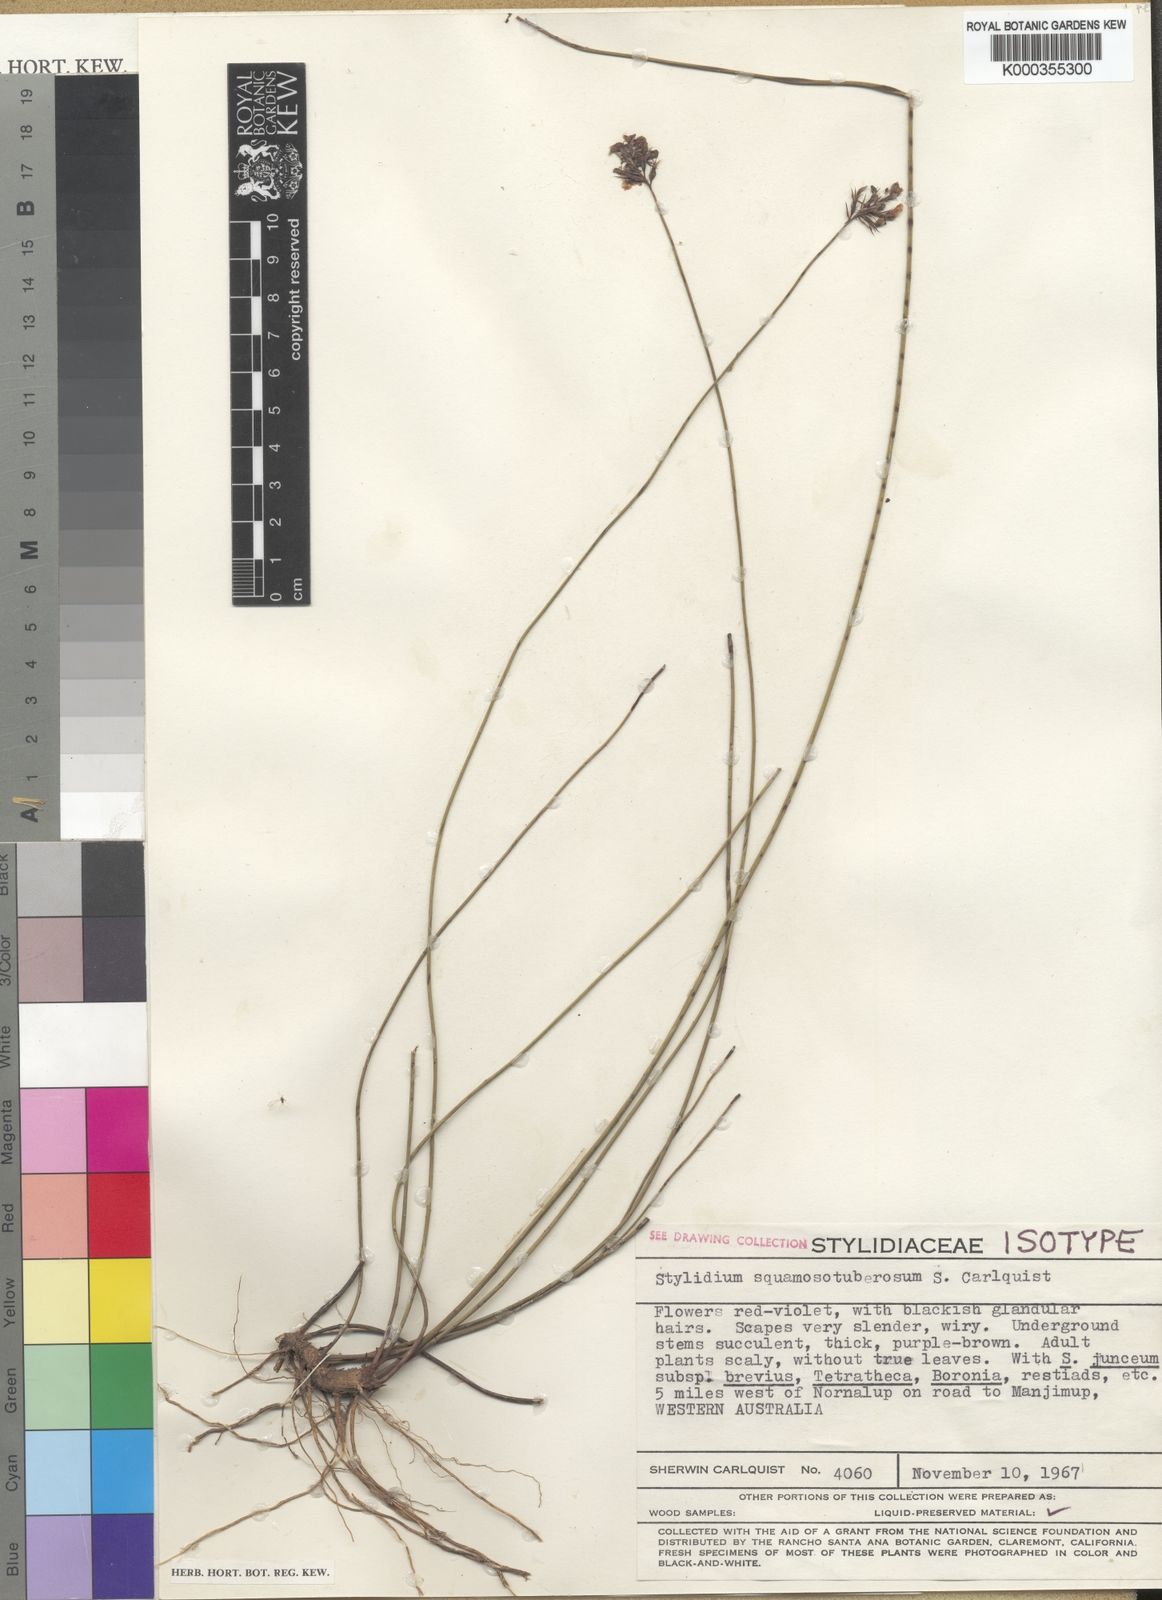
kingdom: Plantae
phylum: Tracheophyta
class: Magnoliopsida
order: Asterales
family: Stylidiaceae
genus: Stylidium
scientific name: Stylidium squamosotuberosum
